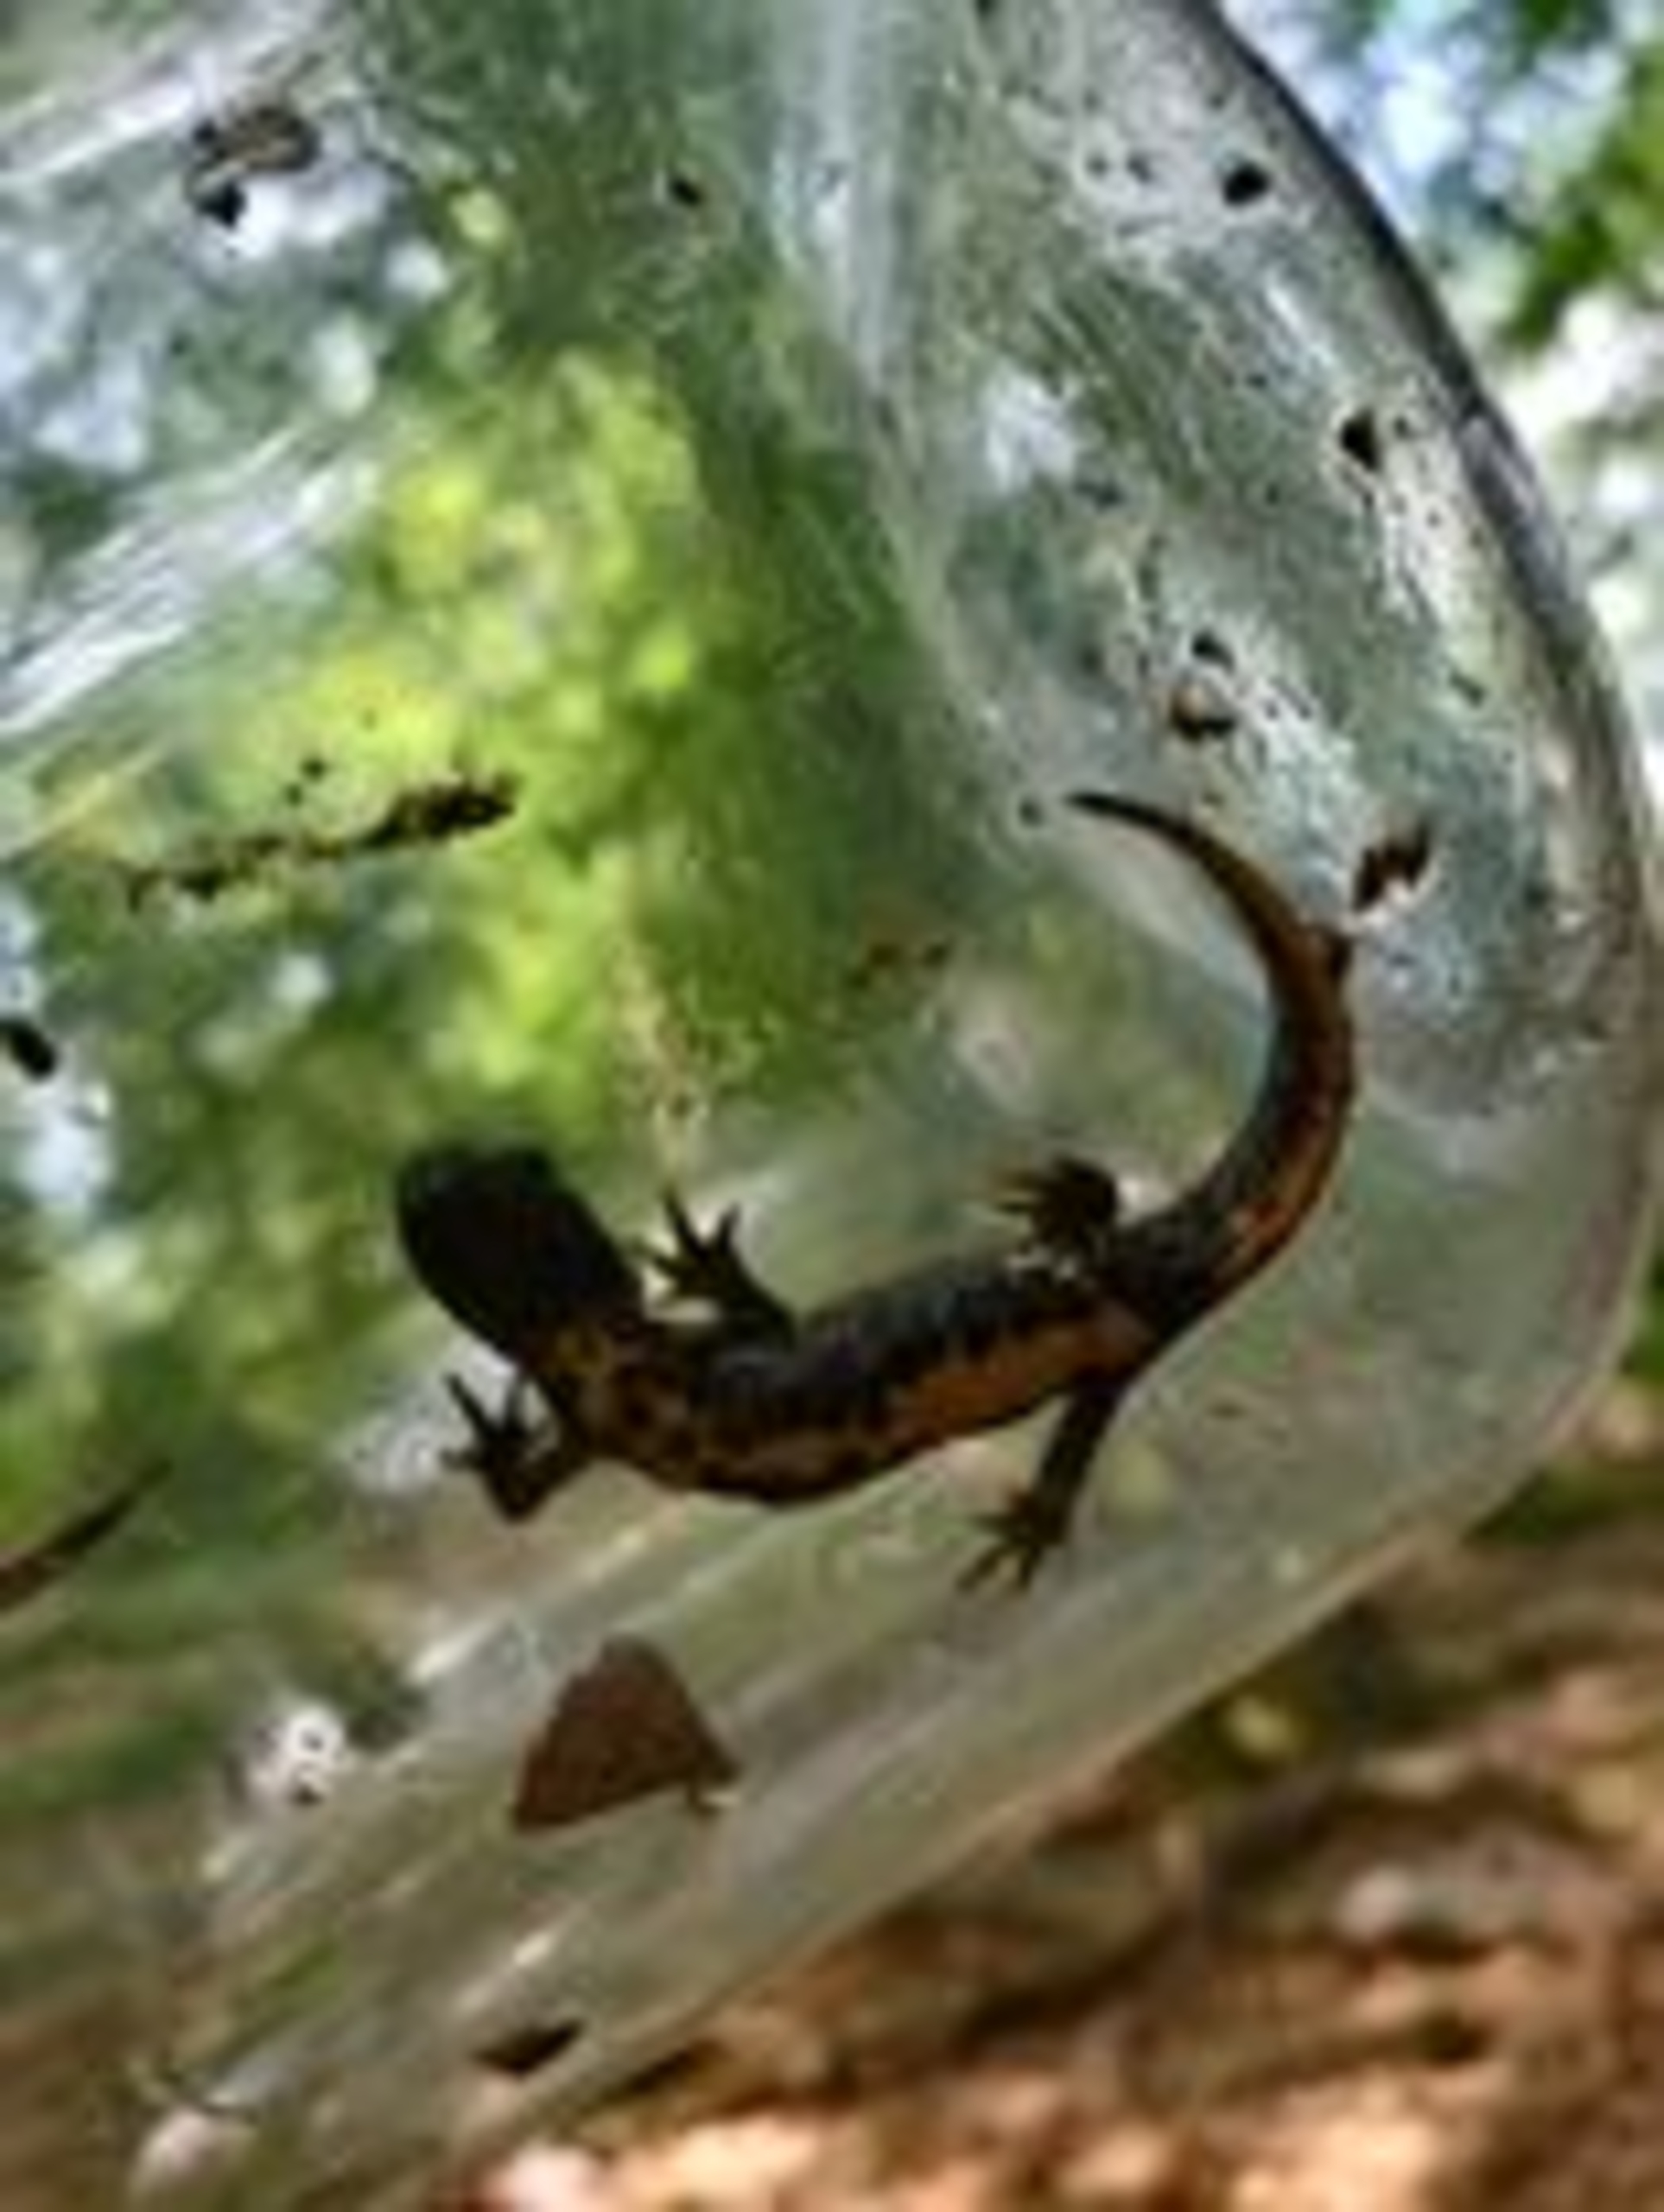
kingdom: Animalia
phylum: Chordata
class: Amphibia
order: Caudata
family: Salamandridae
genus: Triturus
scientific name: Triturus cristatus
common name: Stor vandsalamander
